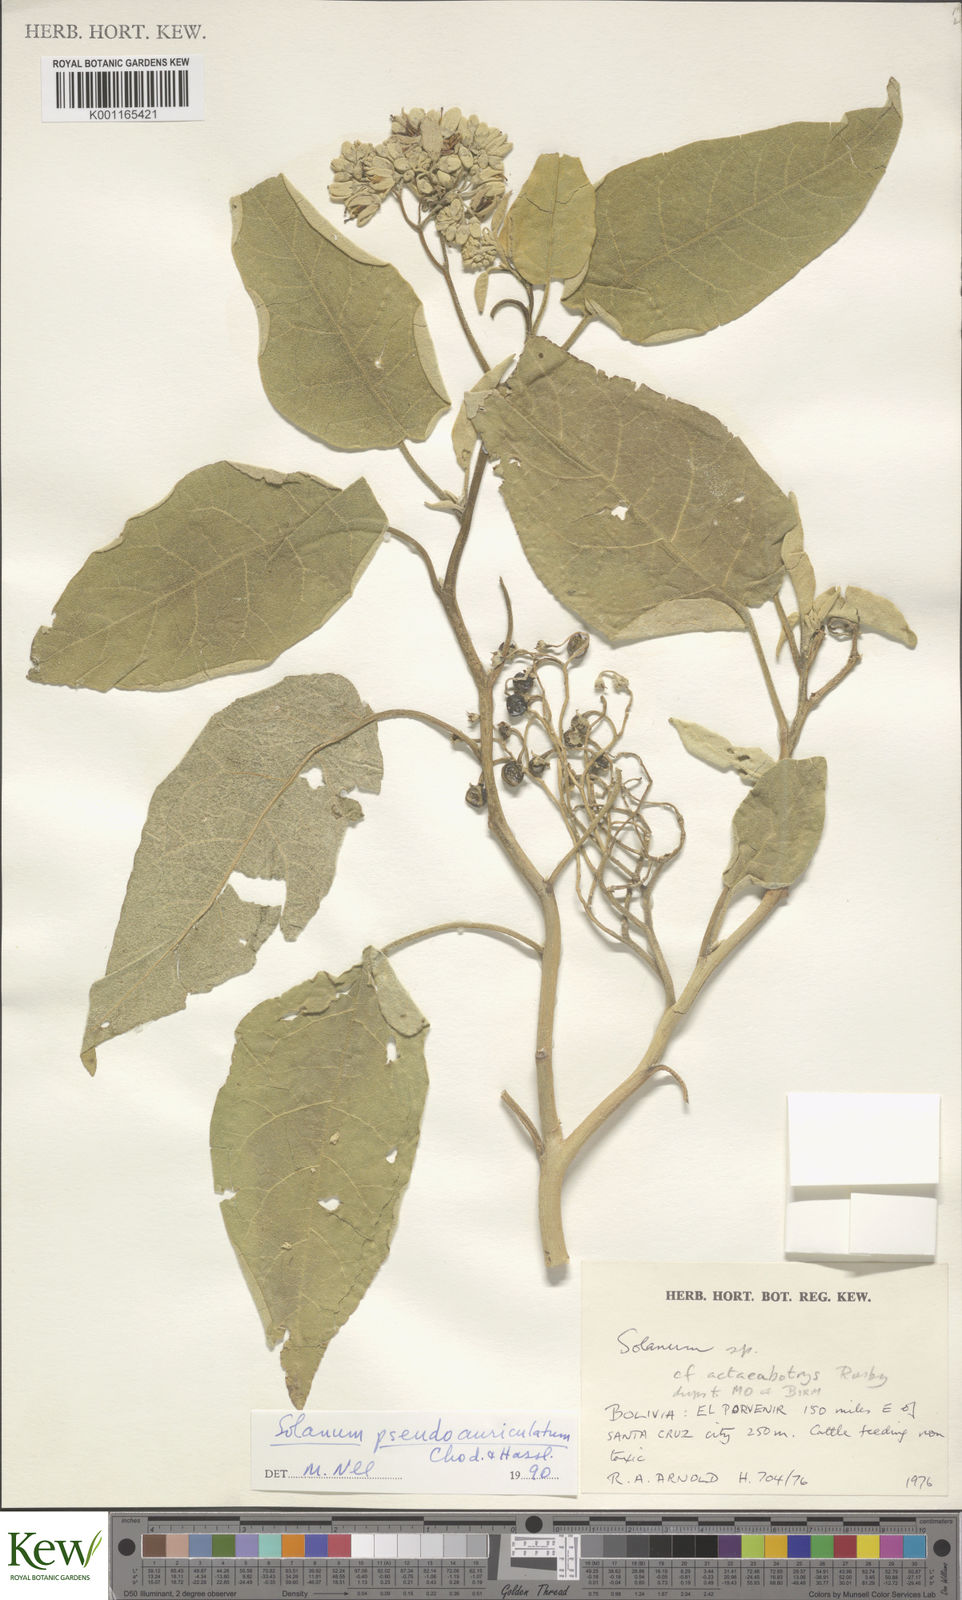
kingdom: Plantae
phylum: Tracheophyta
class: Magnoliopsida
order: Solanales
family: Solanaceae
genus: Solanum
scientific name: Solanum pseudoauriculatum
